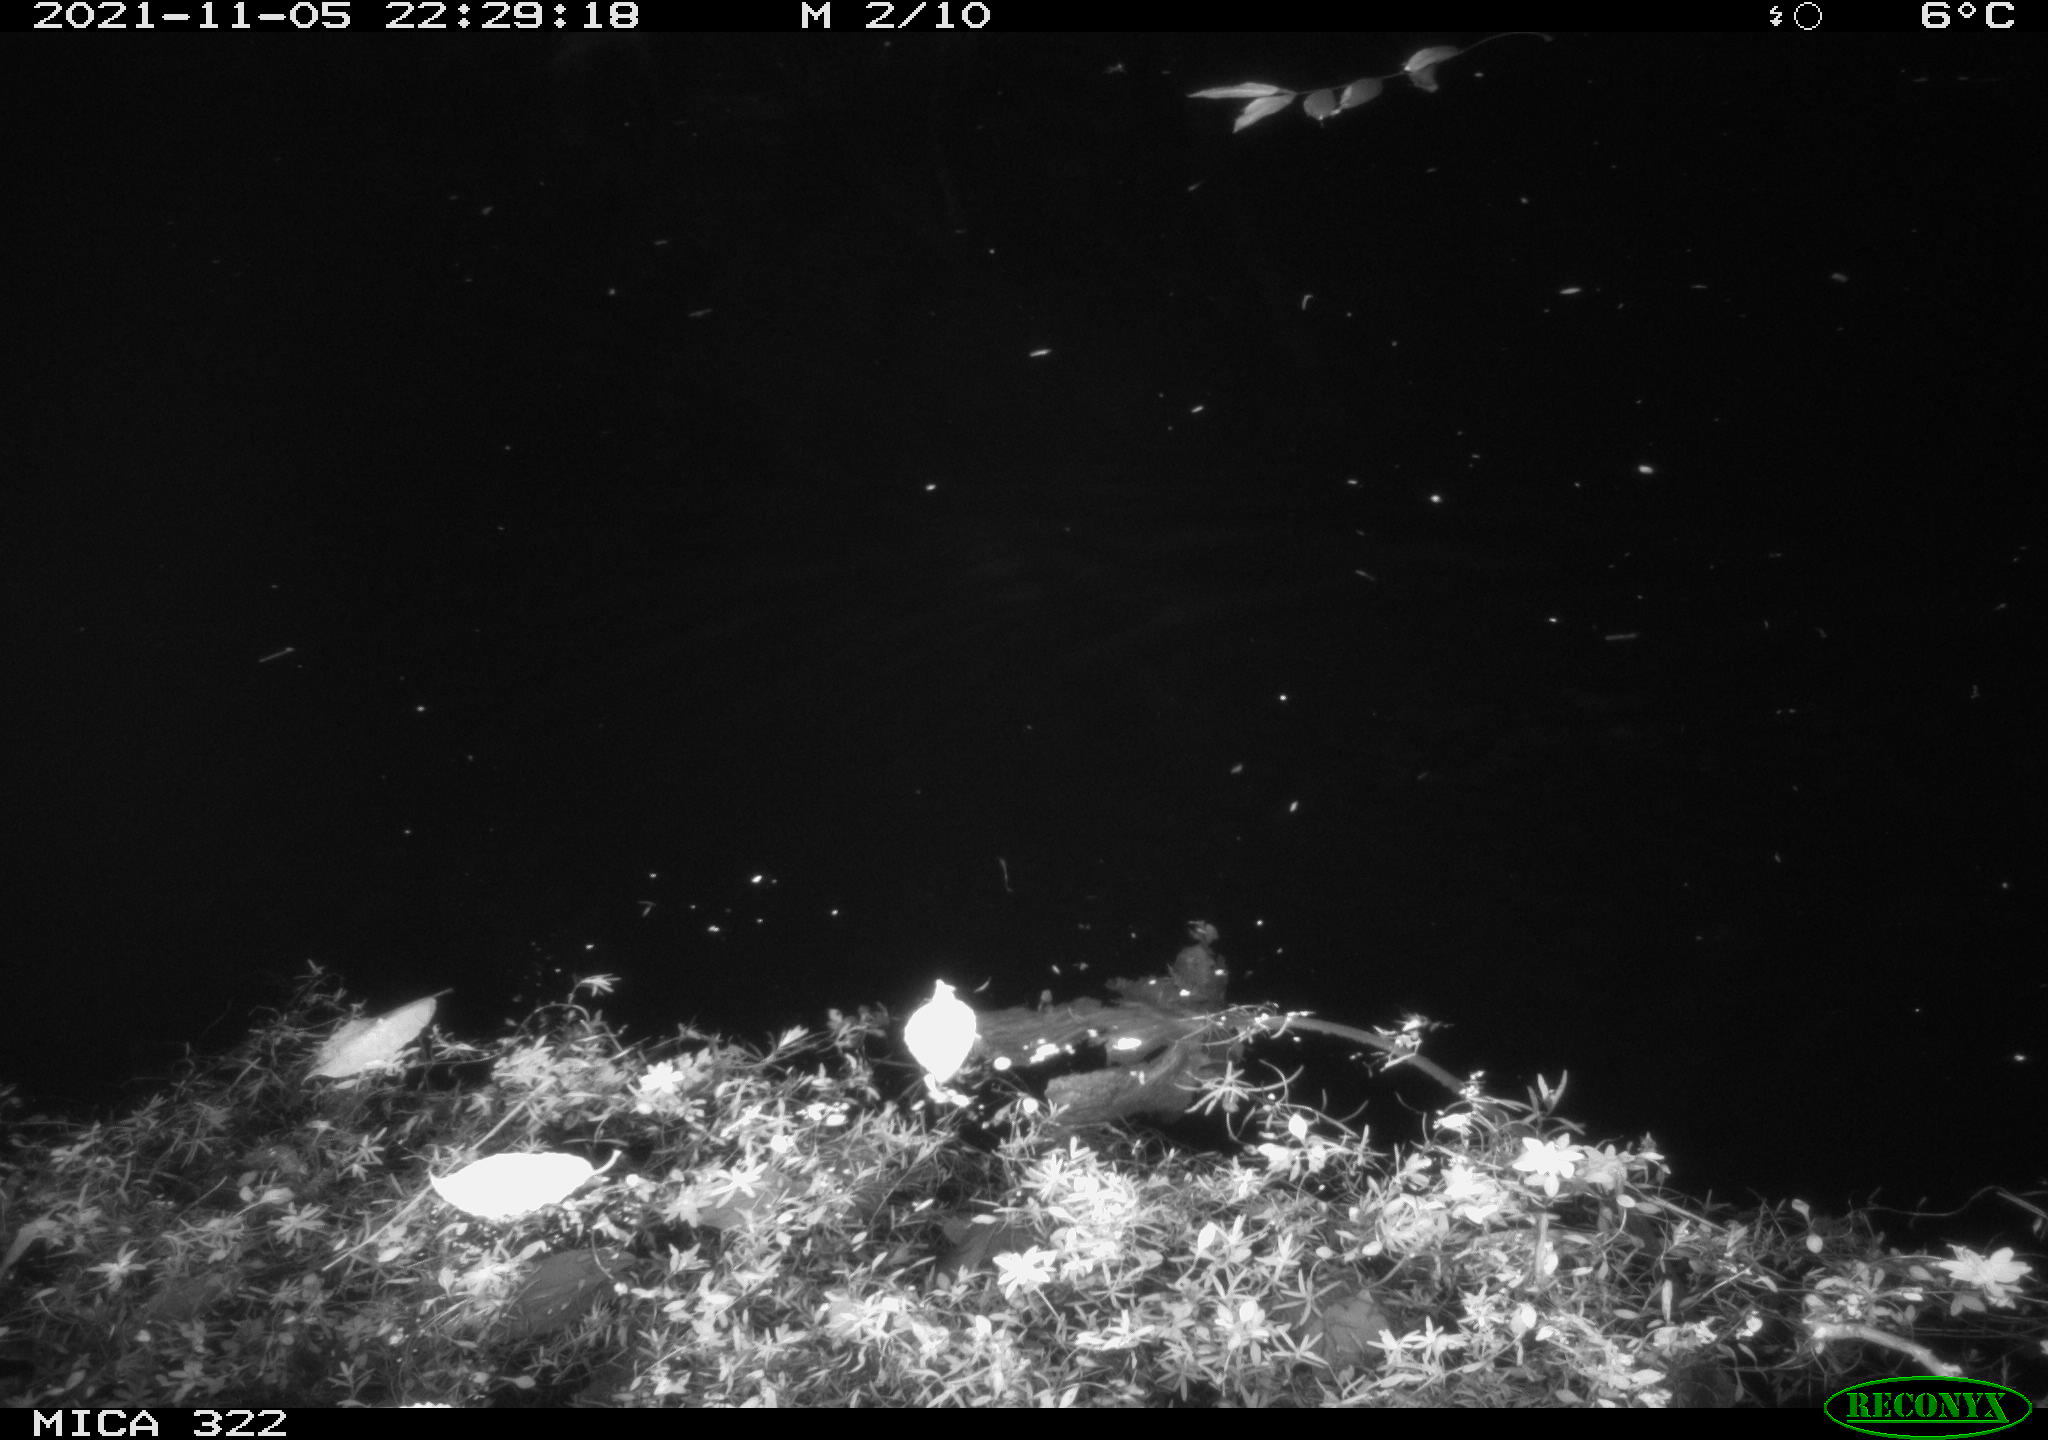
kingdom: Animalia
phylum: Chordata
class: Mammalia
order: Rodentia
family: Muridae
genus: Rattus
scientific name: Rattus norvegicus
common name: Brown rat
